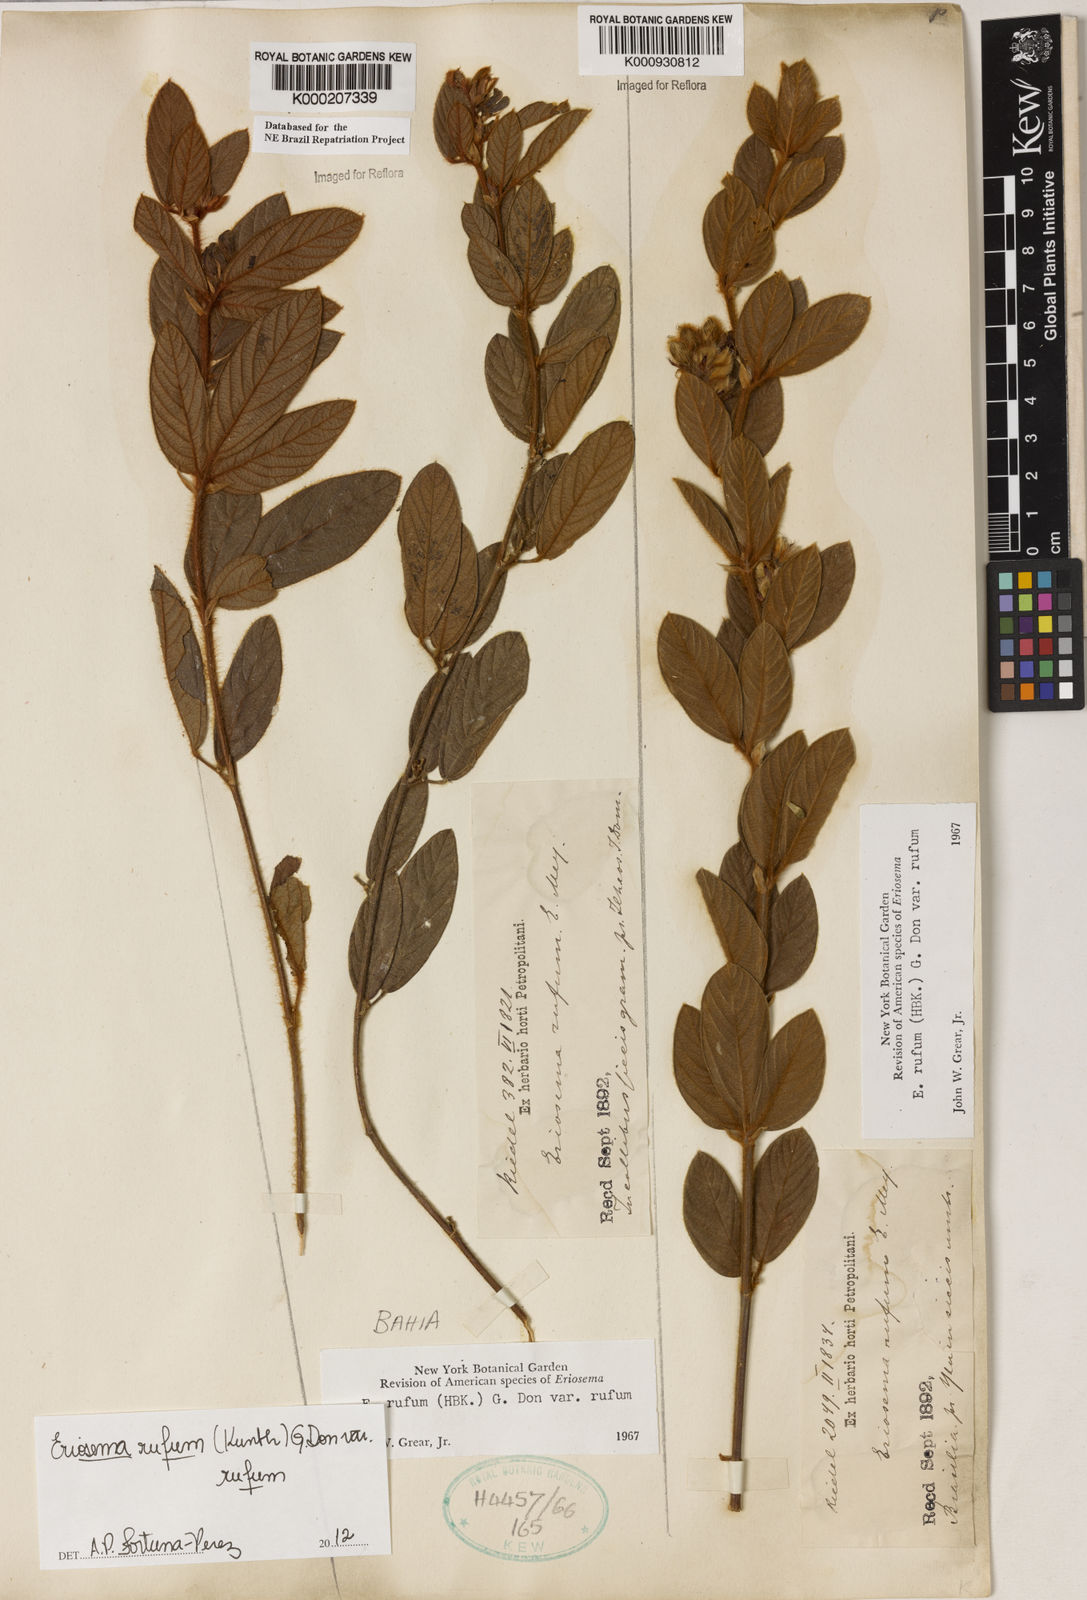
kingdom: Plantae
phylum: Tracheophyta
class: Magnoliopsida
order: Fabales
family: Fabaceae
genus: Eriosema
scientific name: Eriosema rufum
